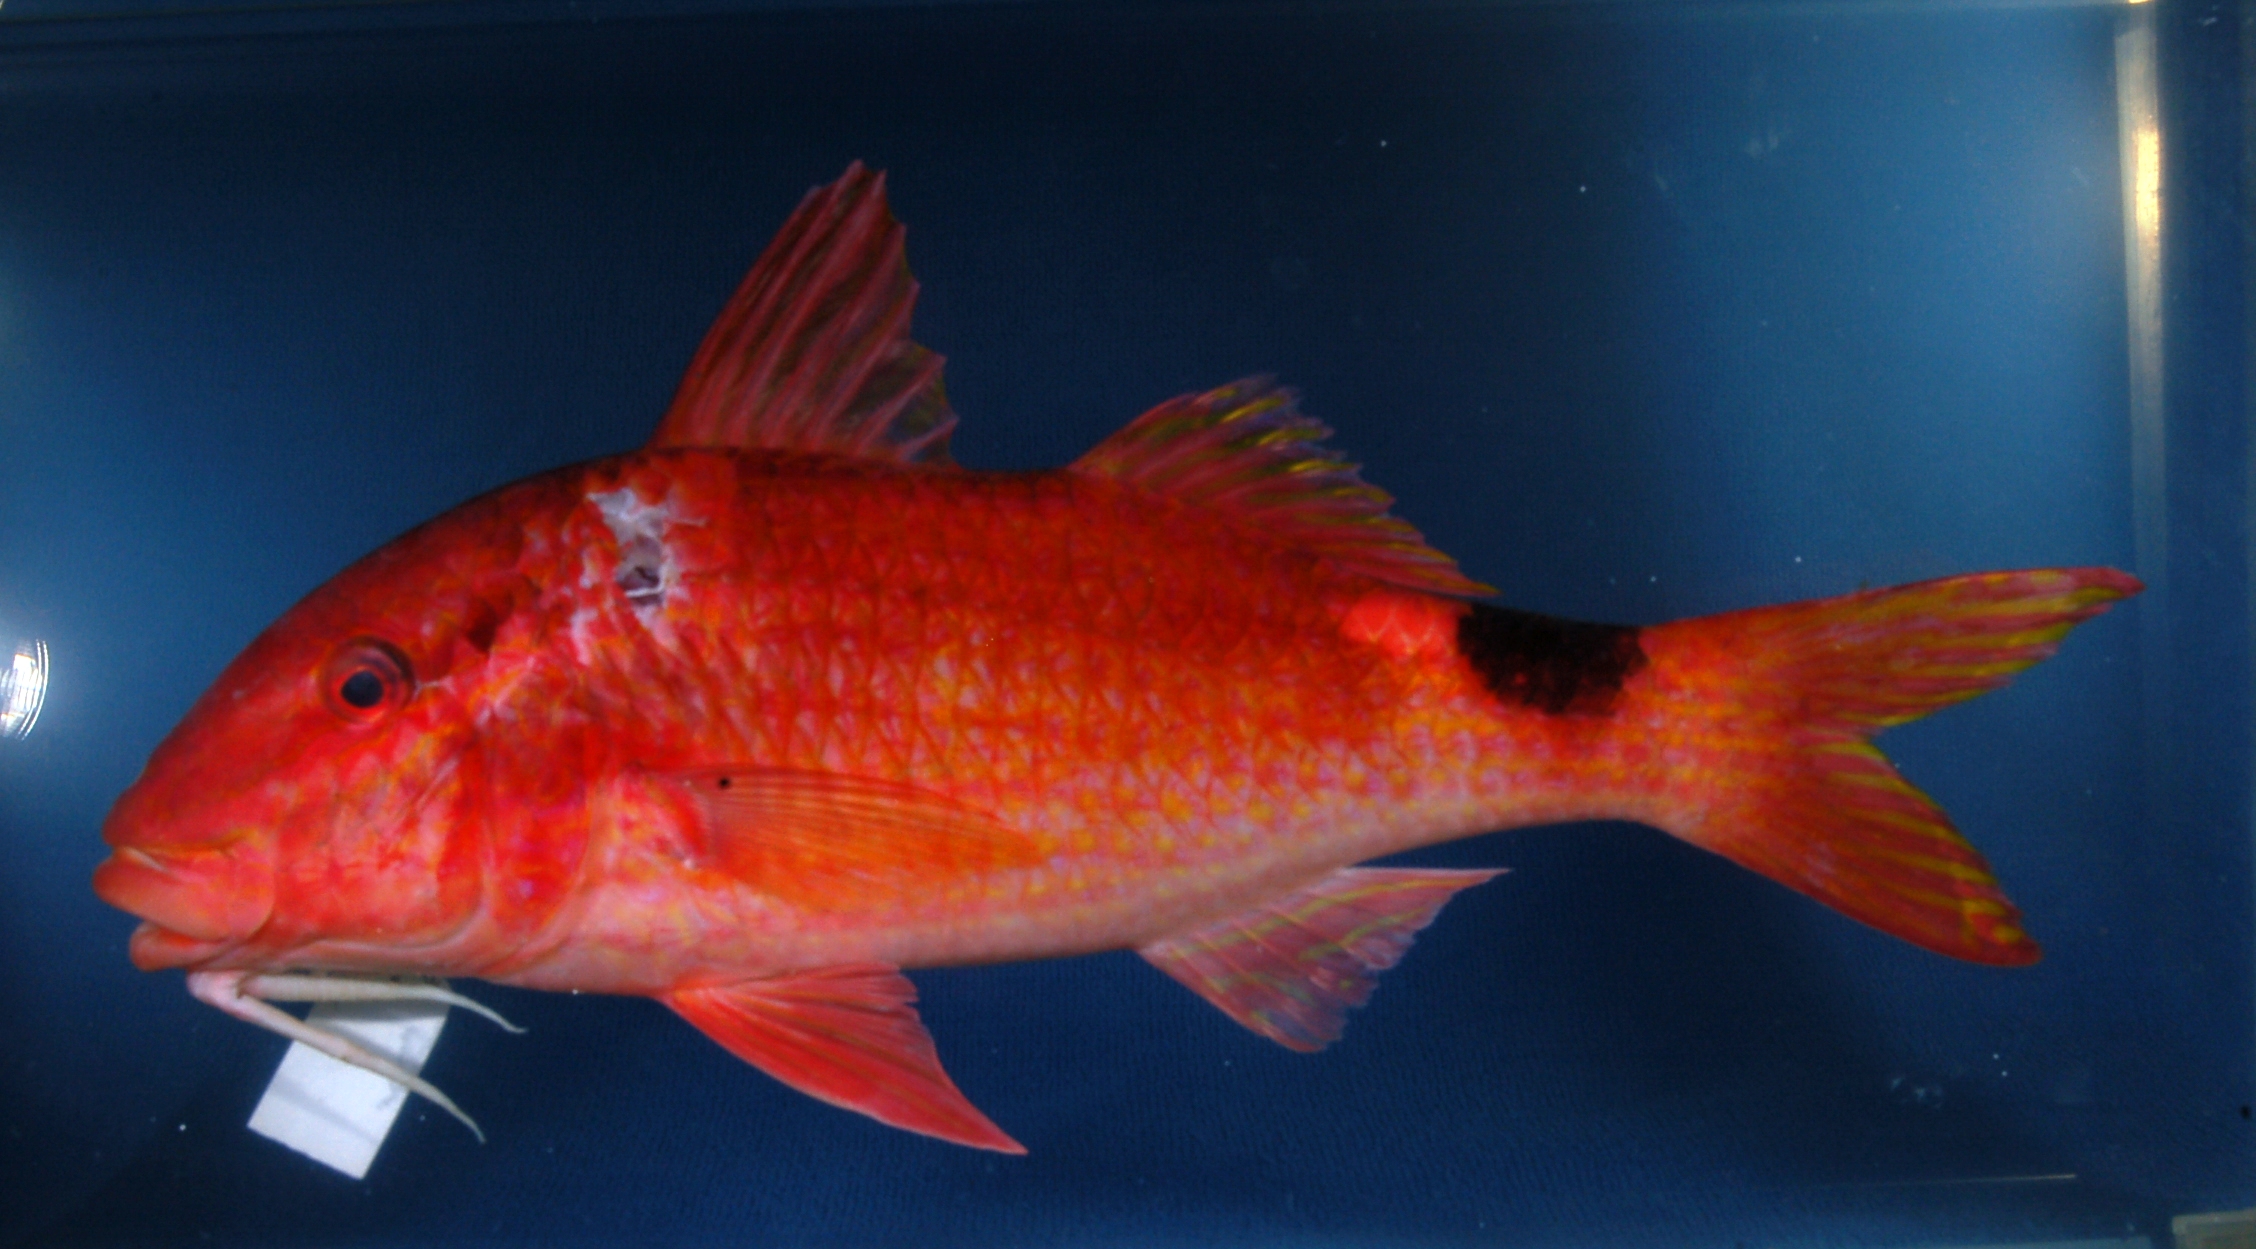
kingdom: Animalia
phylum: Chordata
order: Perciformes
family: Mullidae
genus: Parupeneus
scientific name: Parupeneus rubescens
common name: Rosy goatfish
